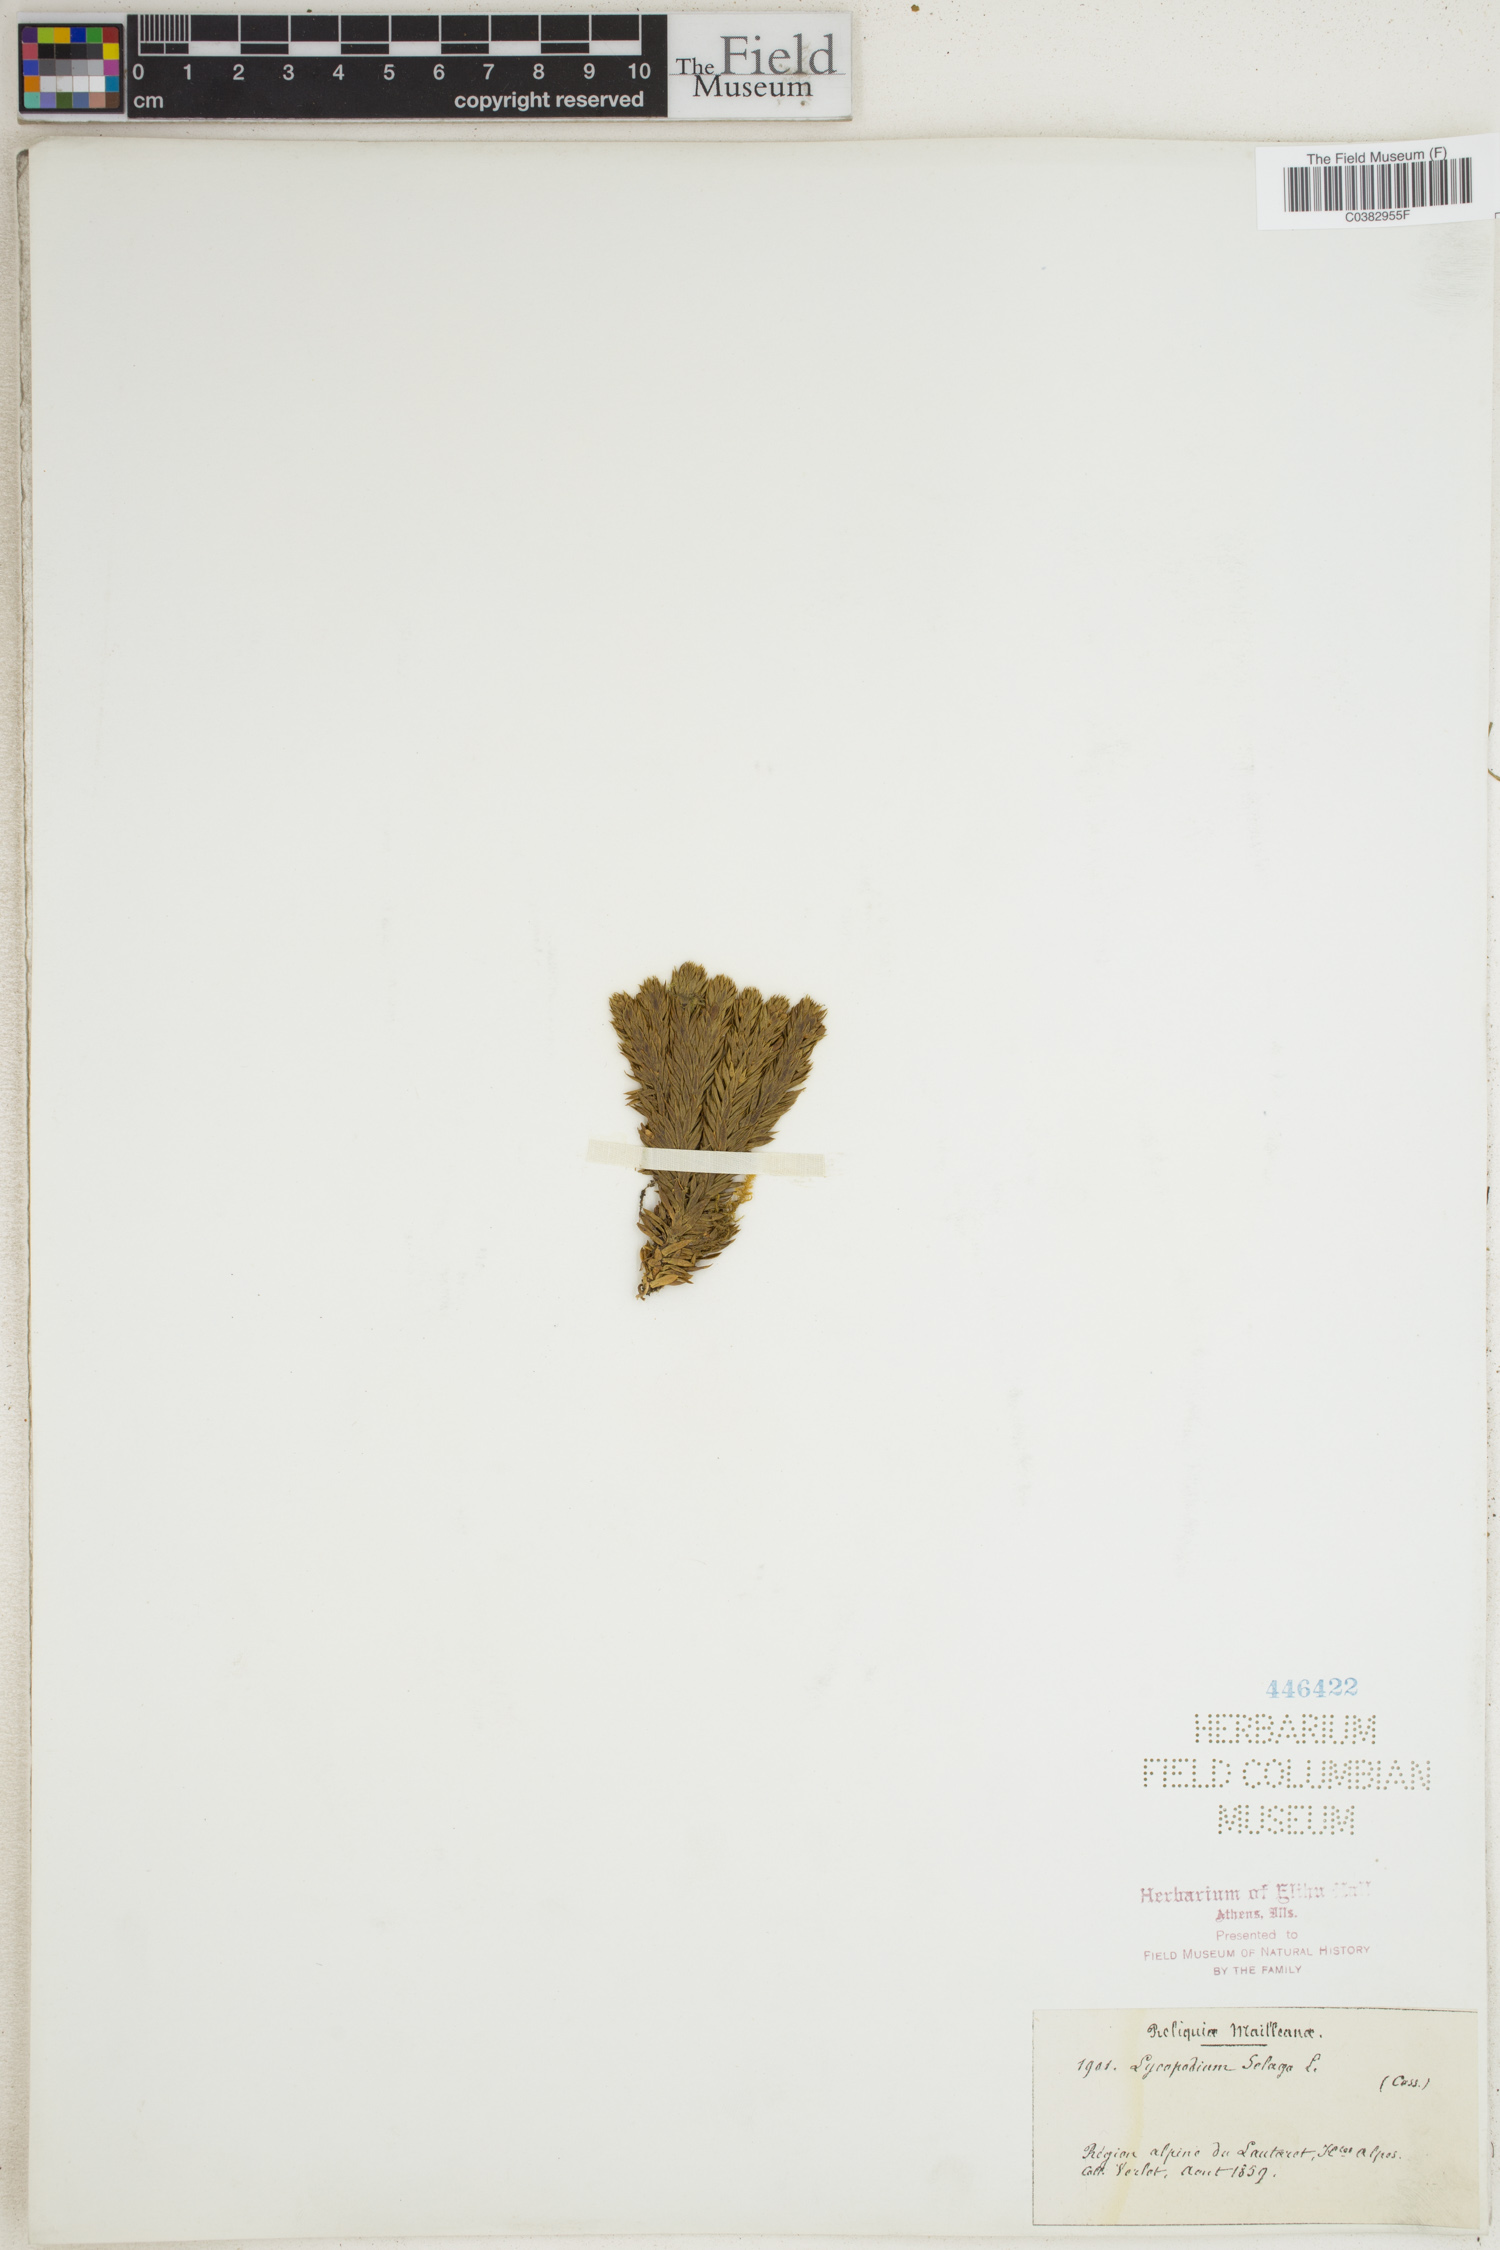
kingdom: Plantae
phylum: Tracheophyta
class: Lycopodiopsida
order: Lycopodiales
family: Lycopodiaceae
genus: Huperzia
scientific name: Huperzia selago
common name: Northern firmoss
